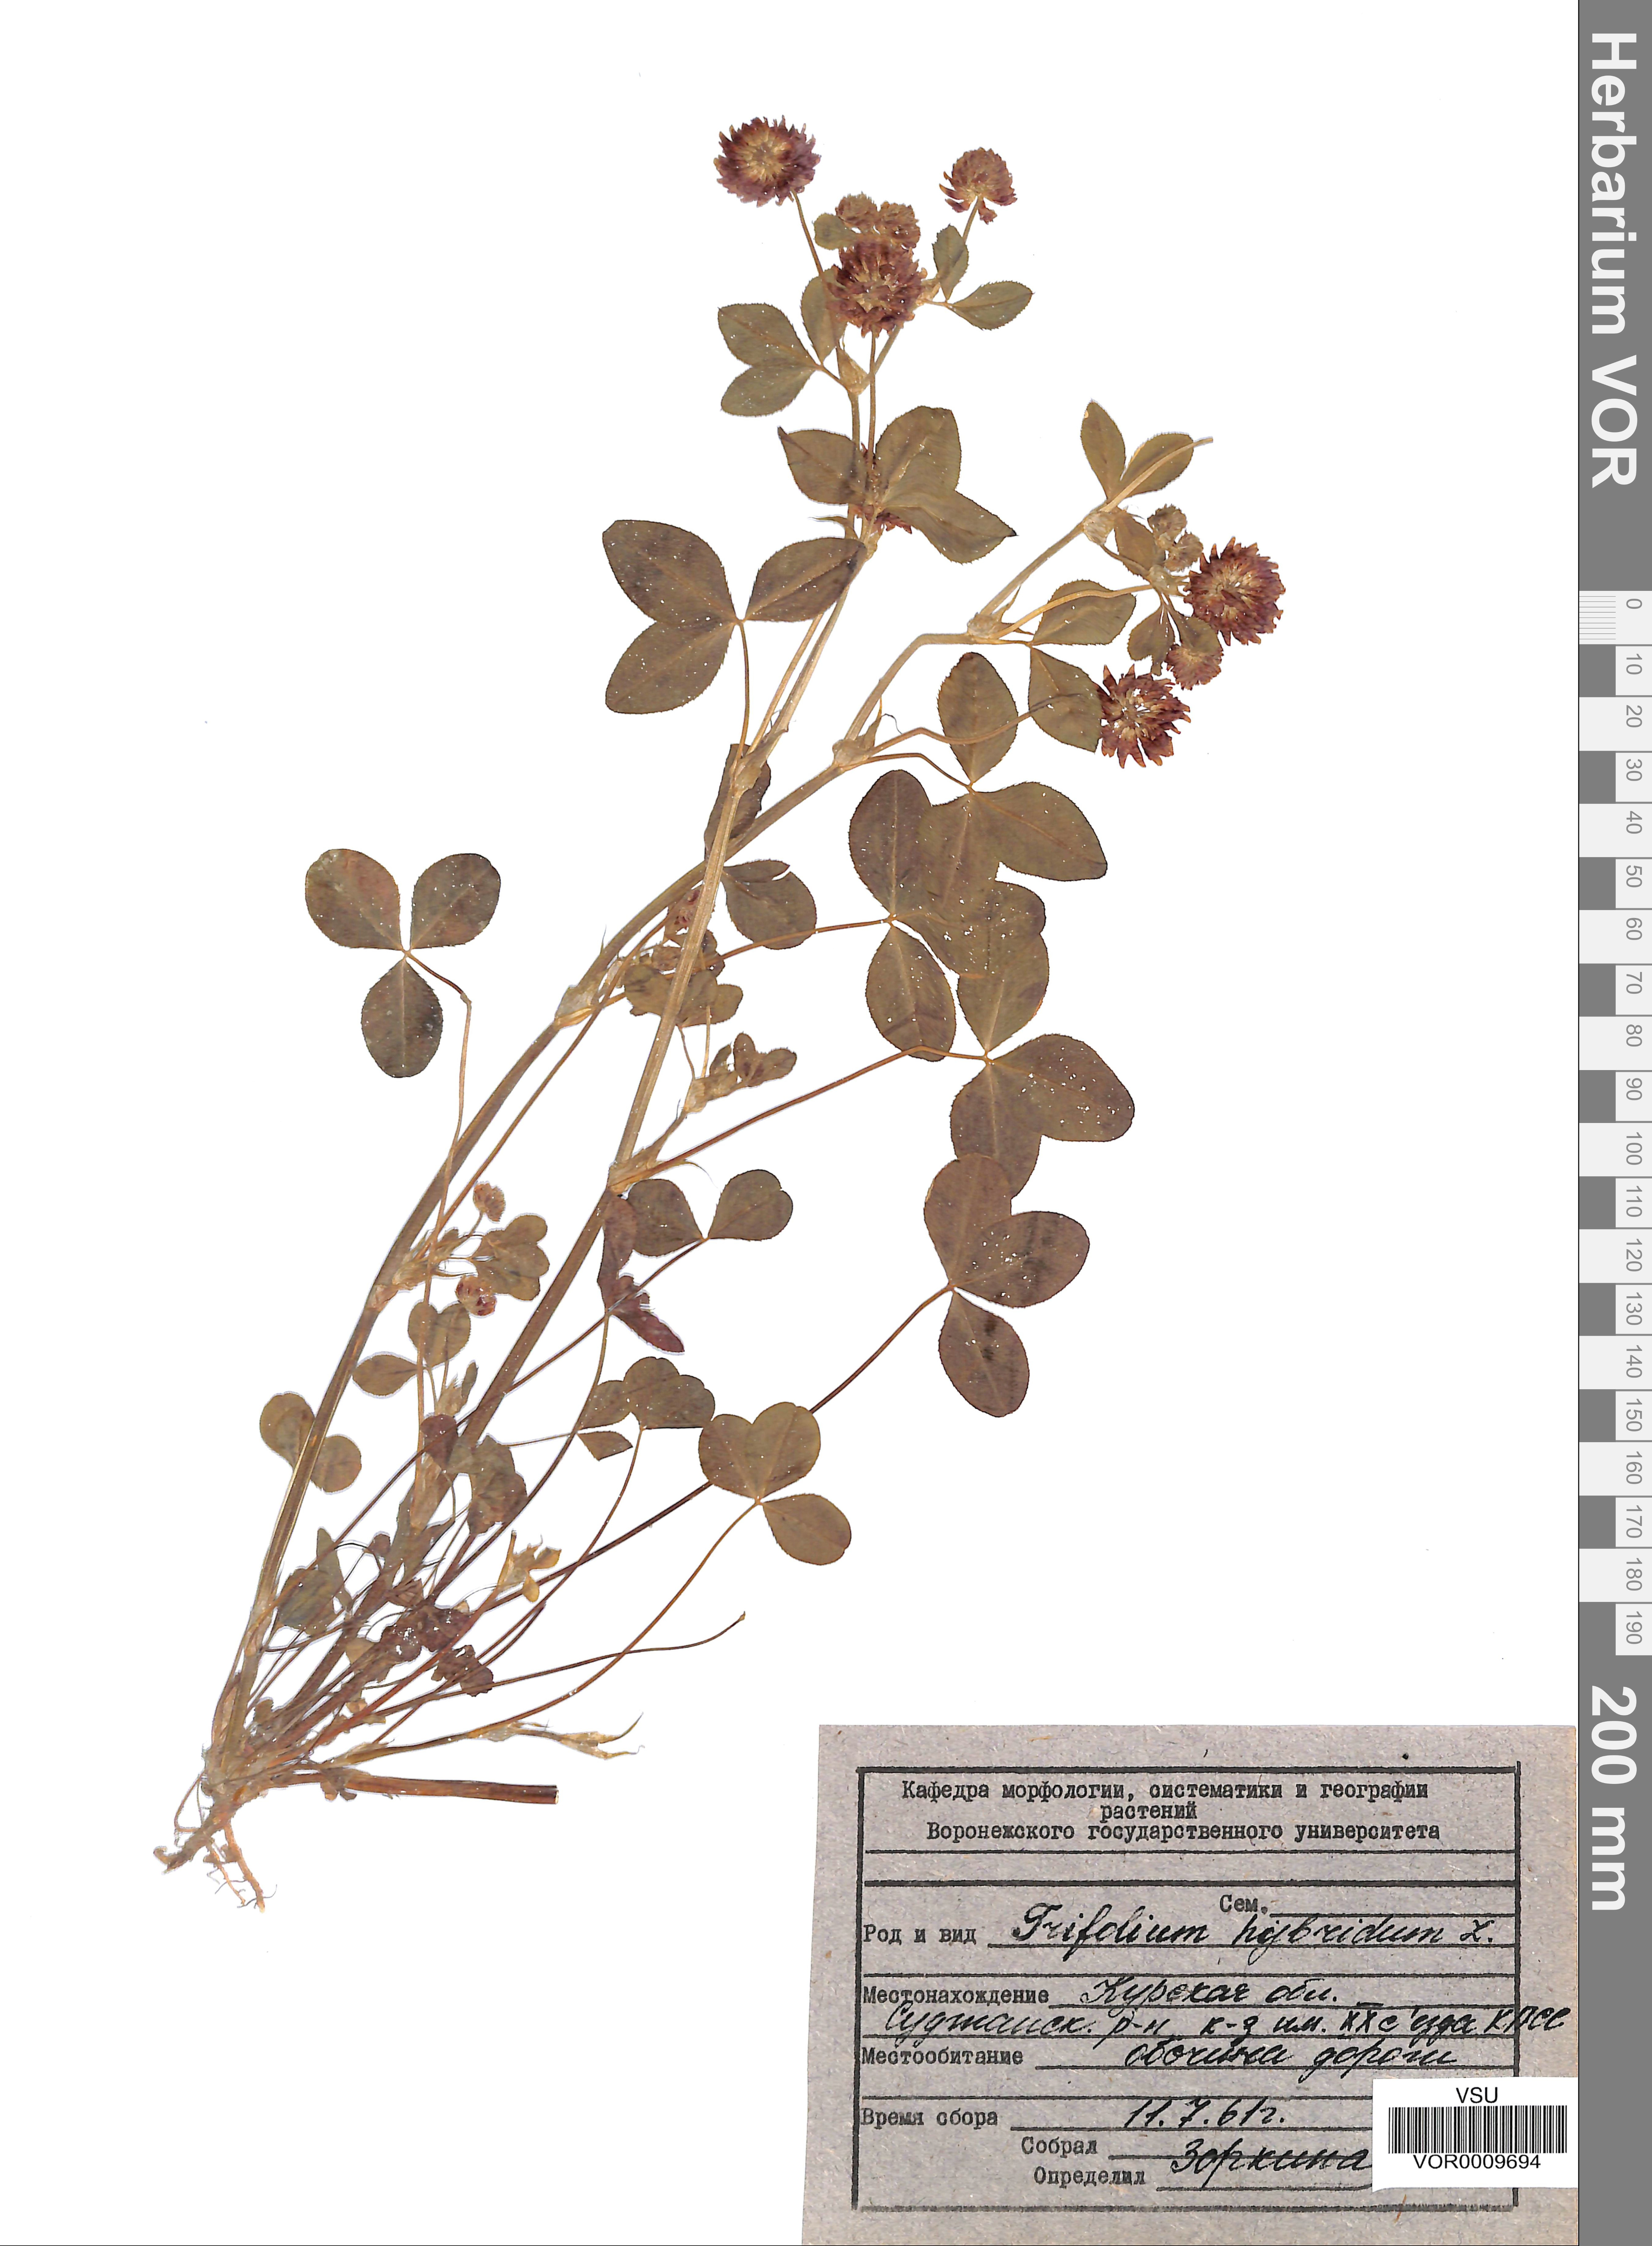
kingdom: Plantae
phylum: Tracheophyta
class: Magnoliopsida
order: Fabales
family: Fabaceae
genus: Trifolium
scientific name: Trifolium hybridum
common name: Alsike clover
